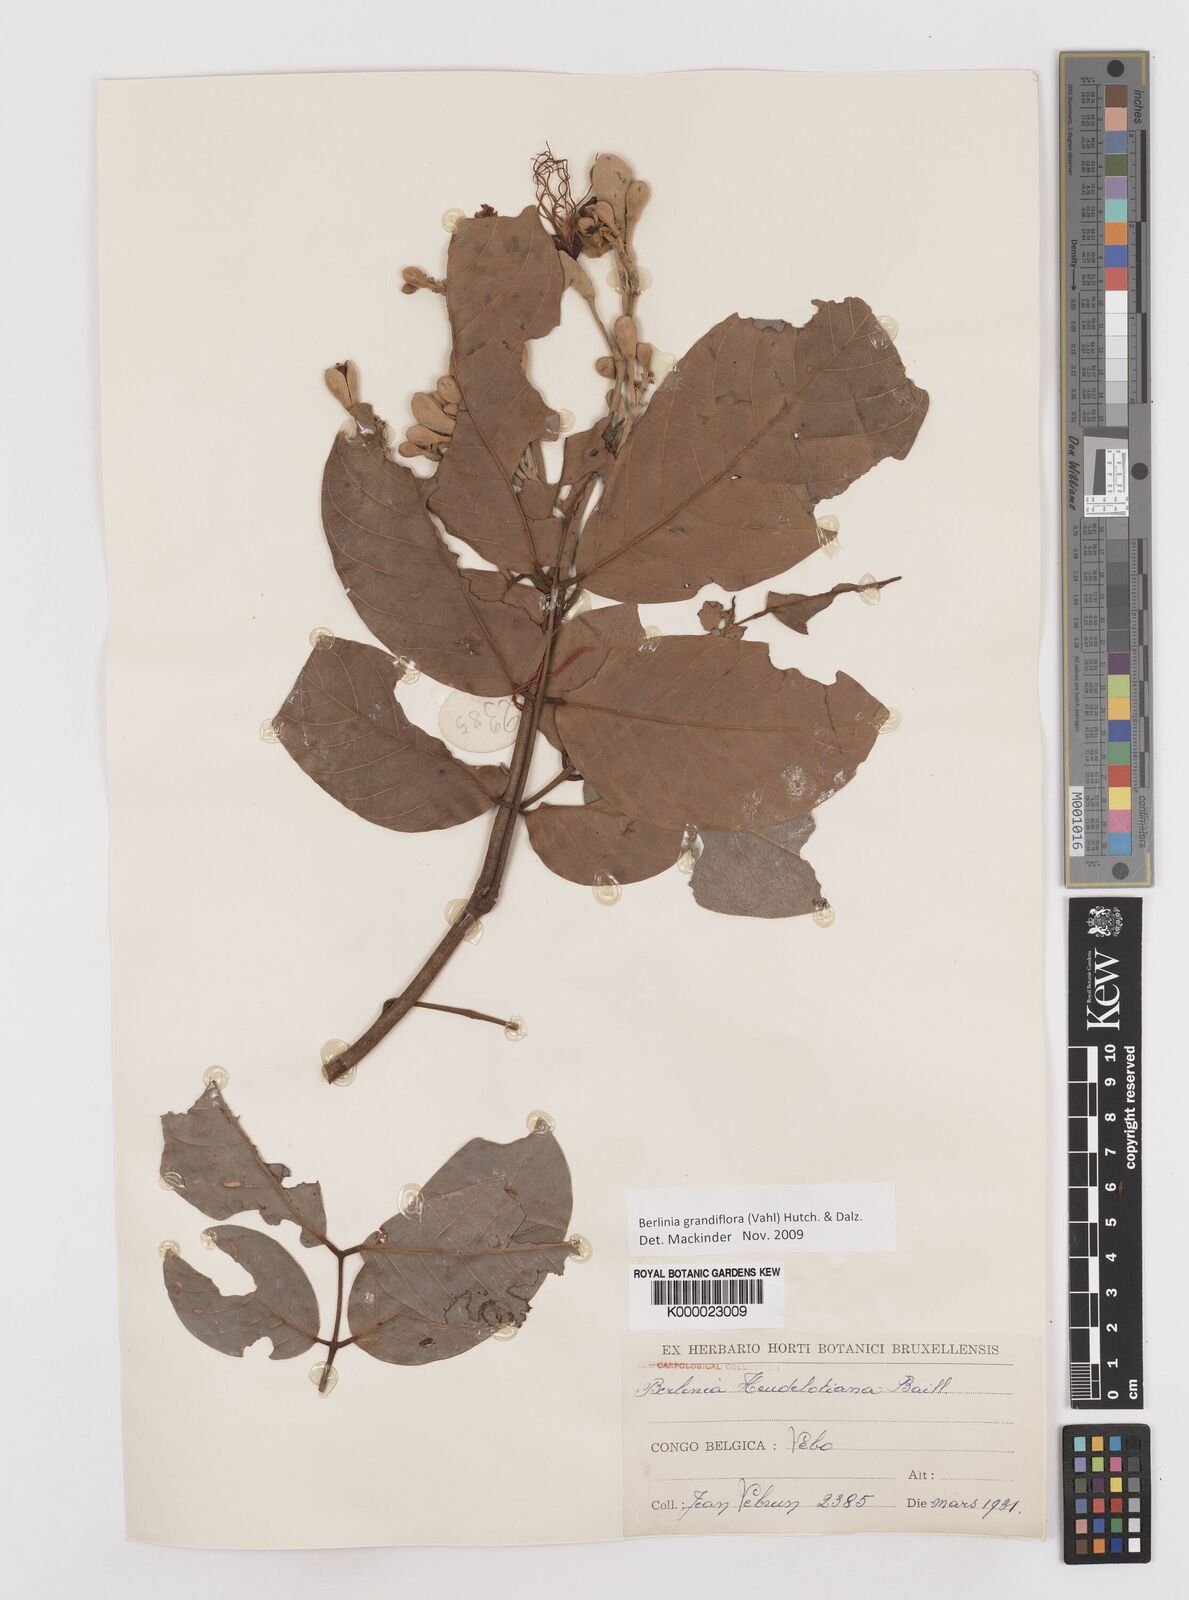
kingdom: Plantae
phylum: Tracheophyta
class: Magnoliopsida
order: Fabales
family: Fabaceae
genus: Berlinia
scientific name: Berlinia grandiflora
